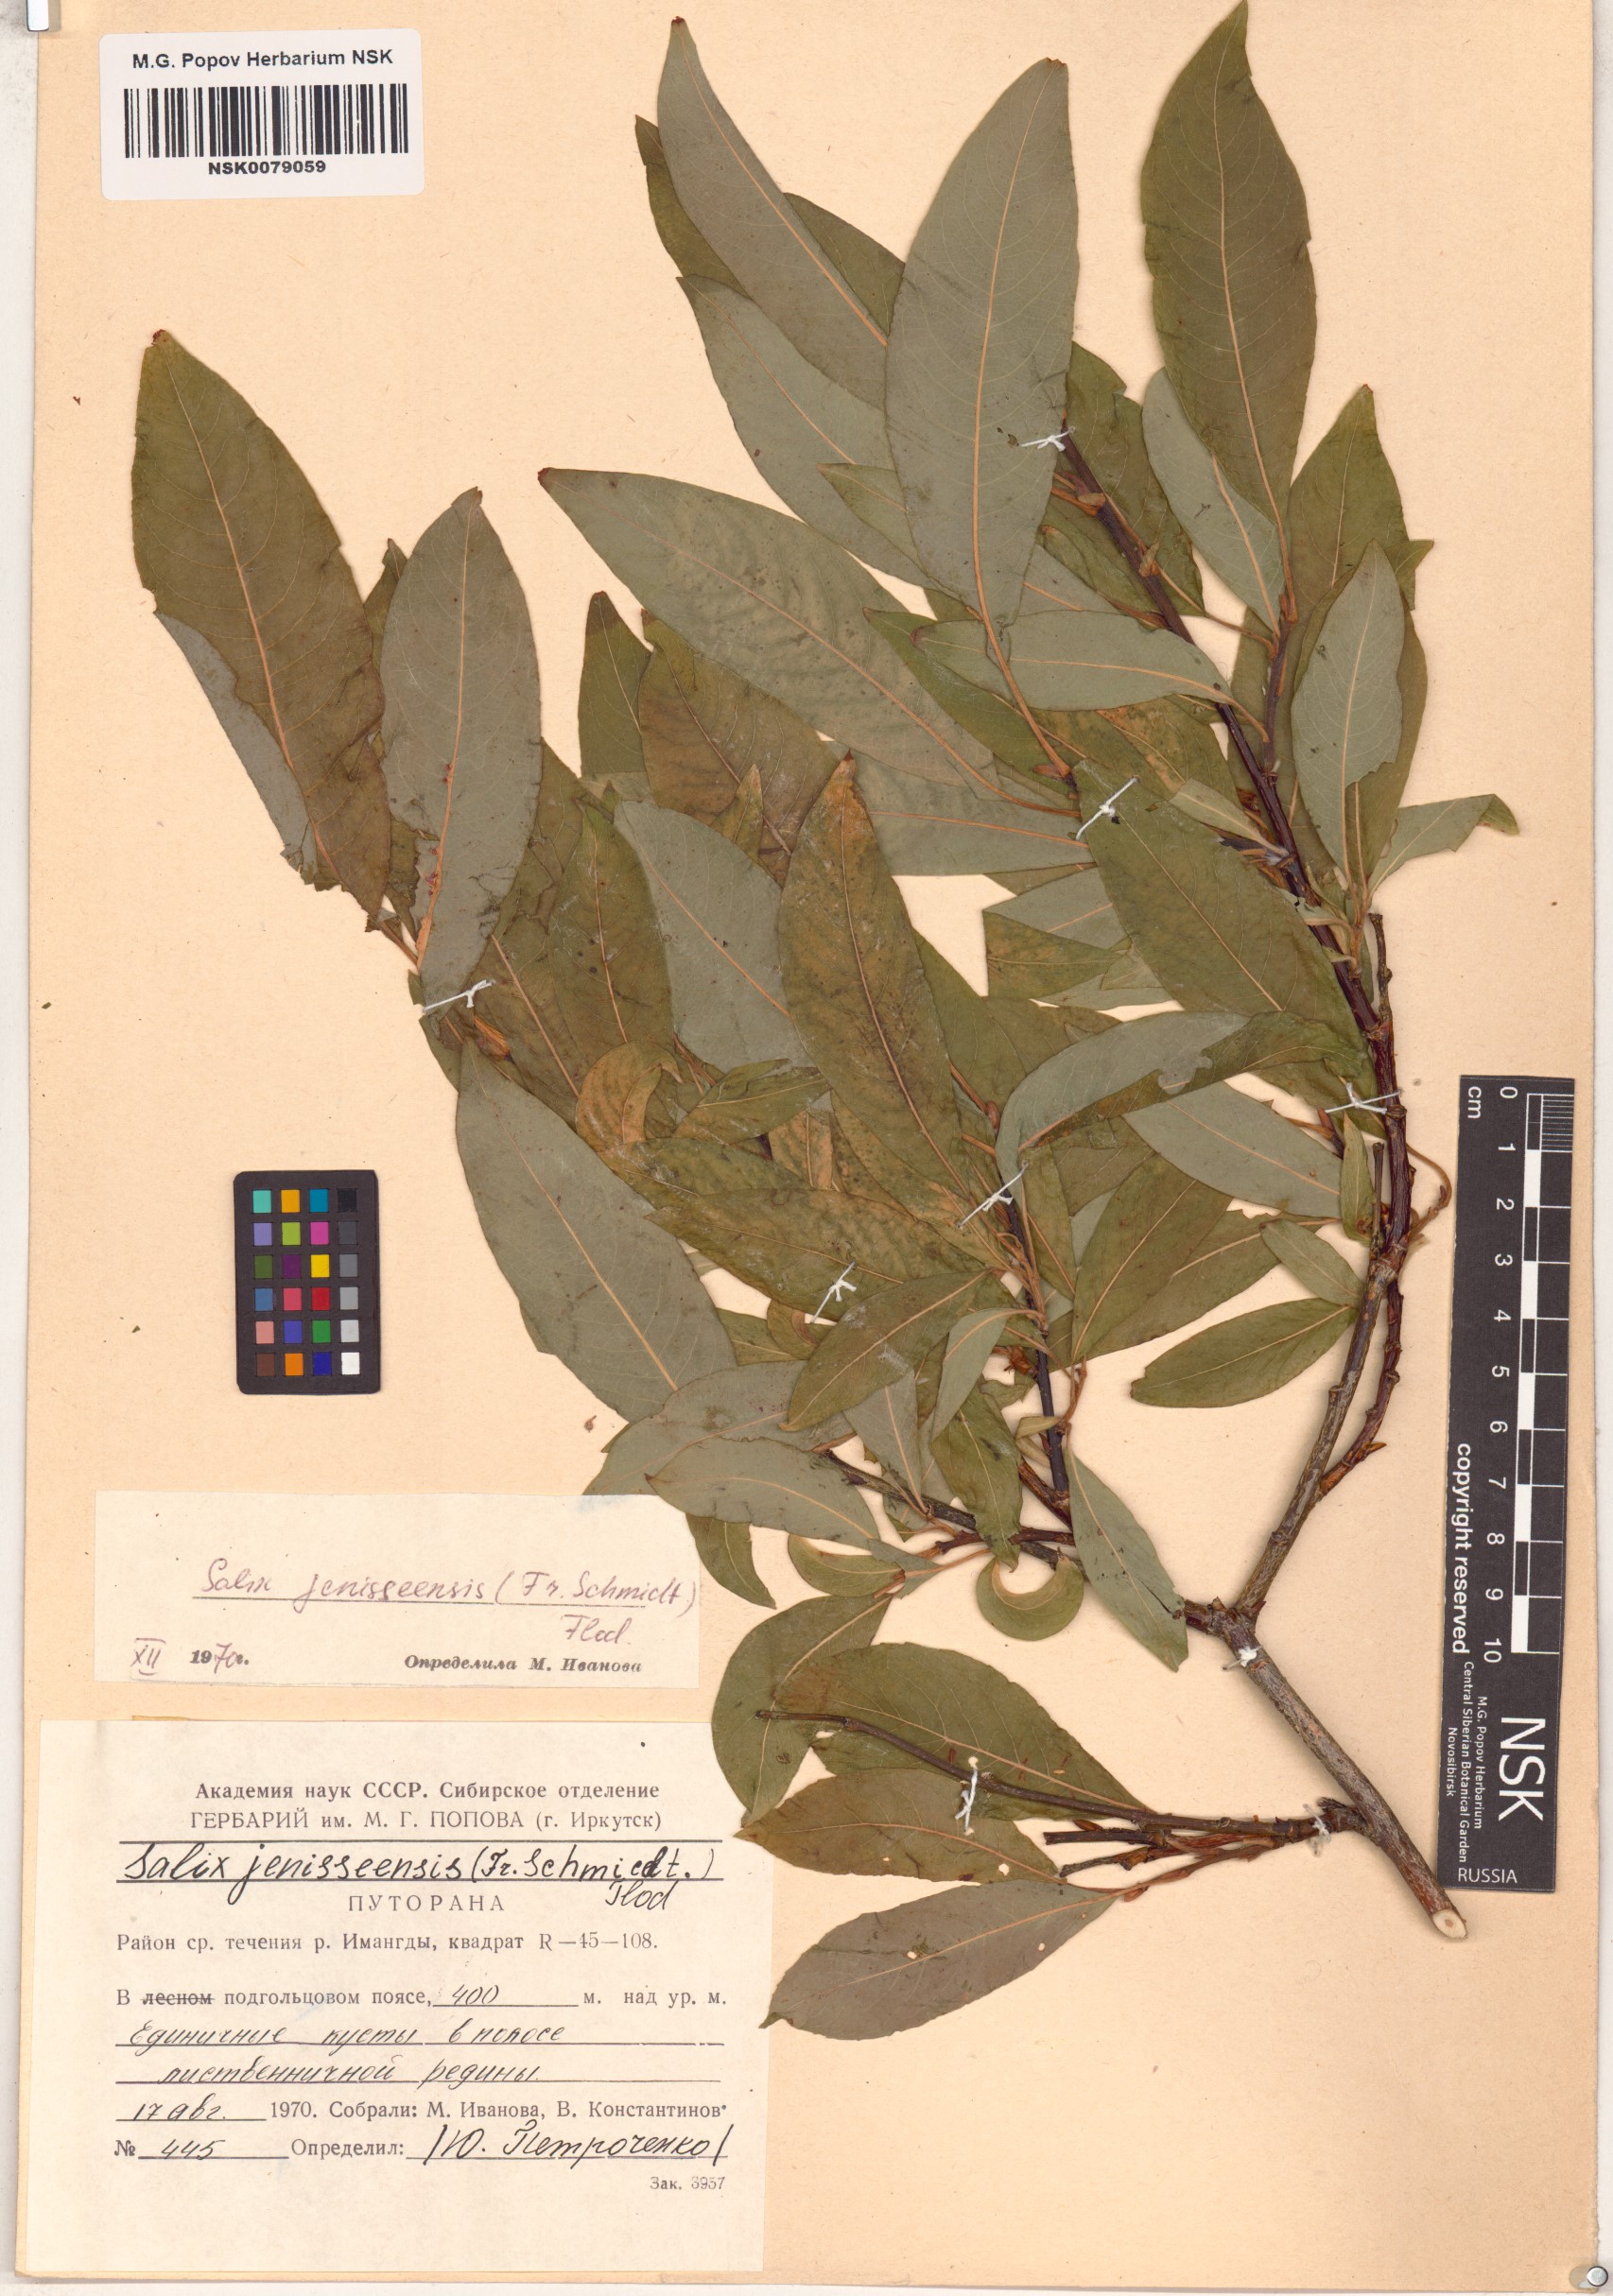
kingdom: Plantae
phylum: Tracheophyta
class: Magnoliopsida
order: Malpighiales
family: Salicaceae
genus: Salix
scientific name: Salix jenisseensis
